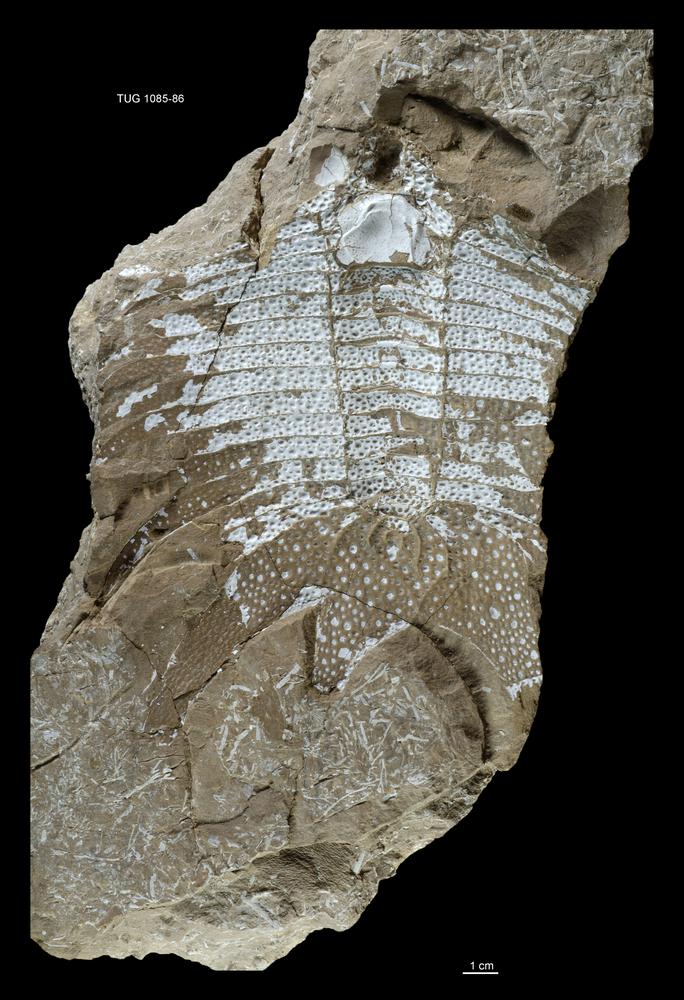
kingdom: Animalia
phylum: Arthropoda
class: Trilobita
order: Phacopida
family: Cheiruridae
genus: Nieszkowskia
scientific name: Nieszkowskia
